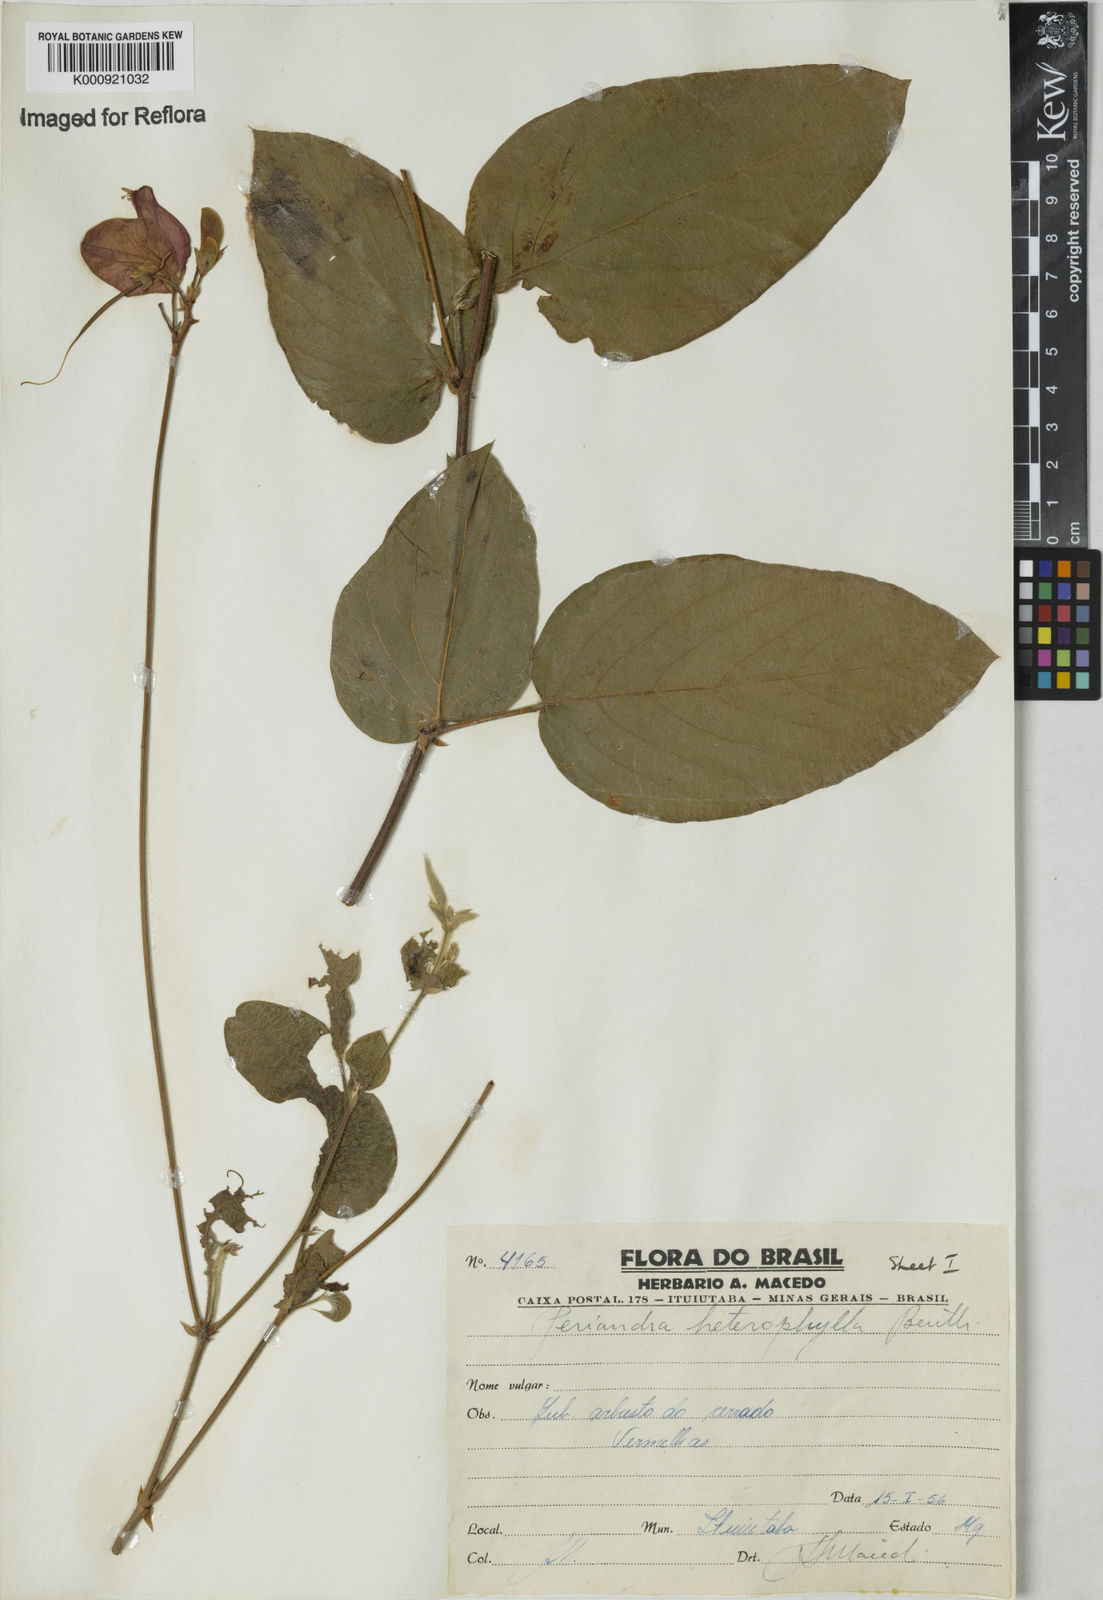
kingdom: Plantae
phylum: Tracheophyta
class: Magnoliopsida
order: Fabales
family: Fabaceae
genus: Periandra
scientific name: Periandra heterophylla
